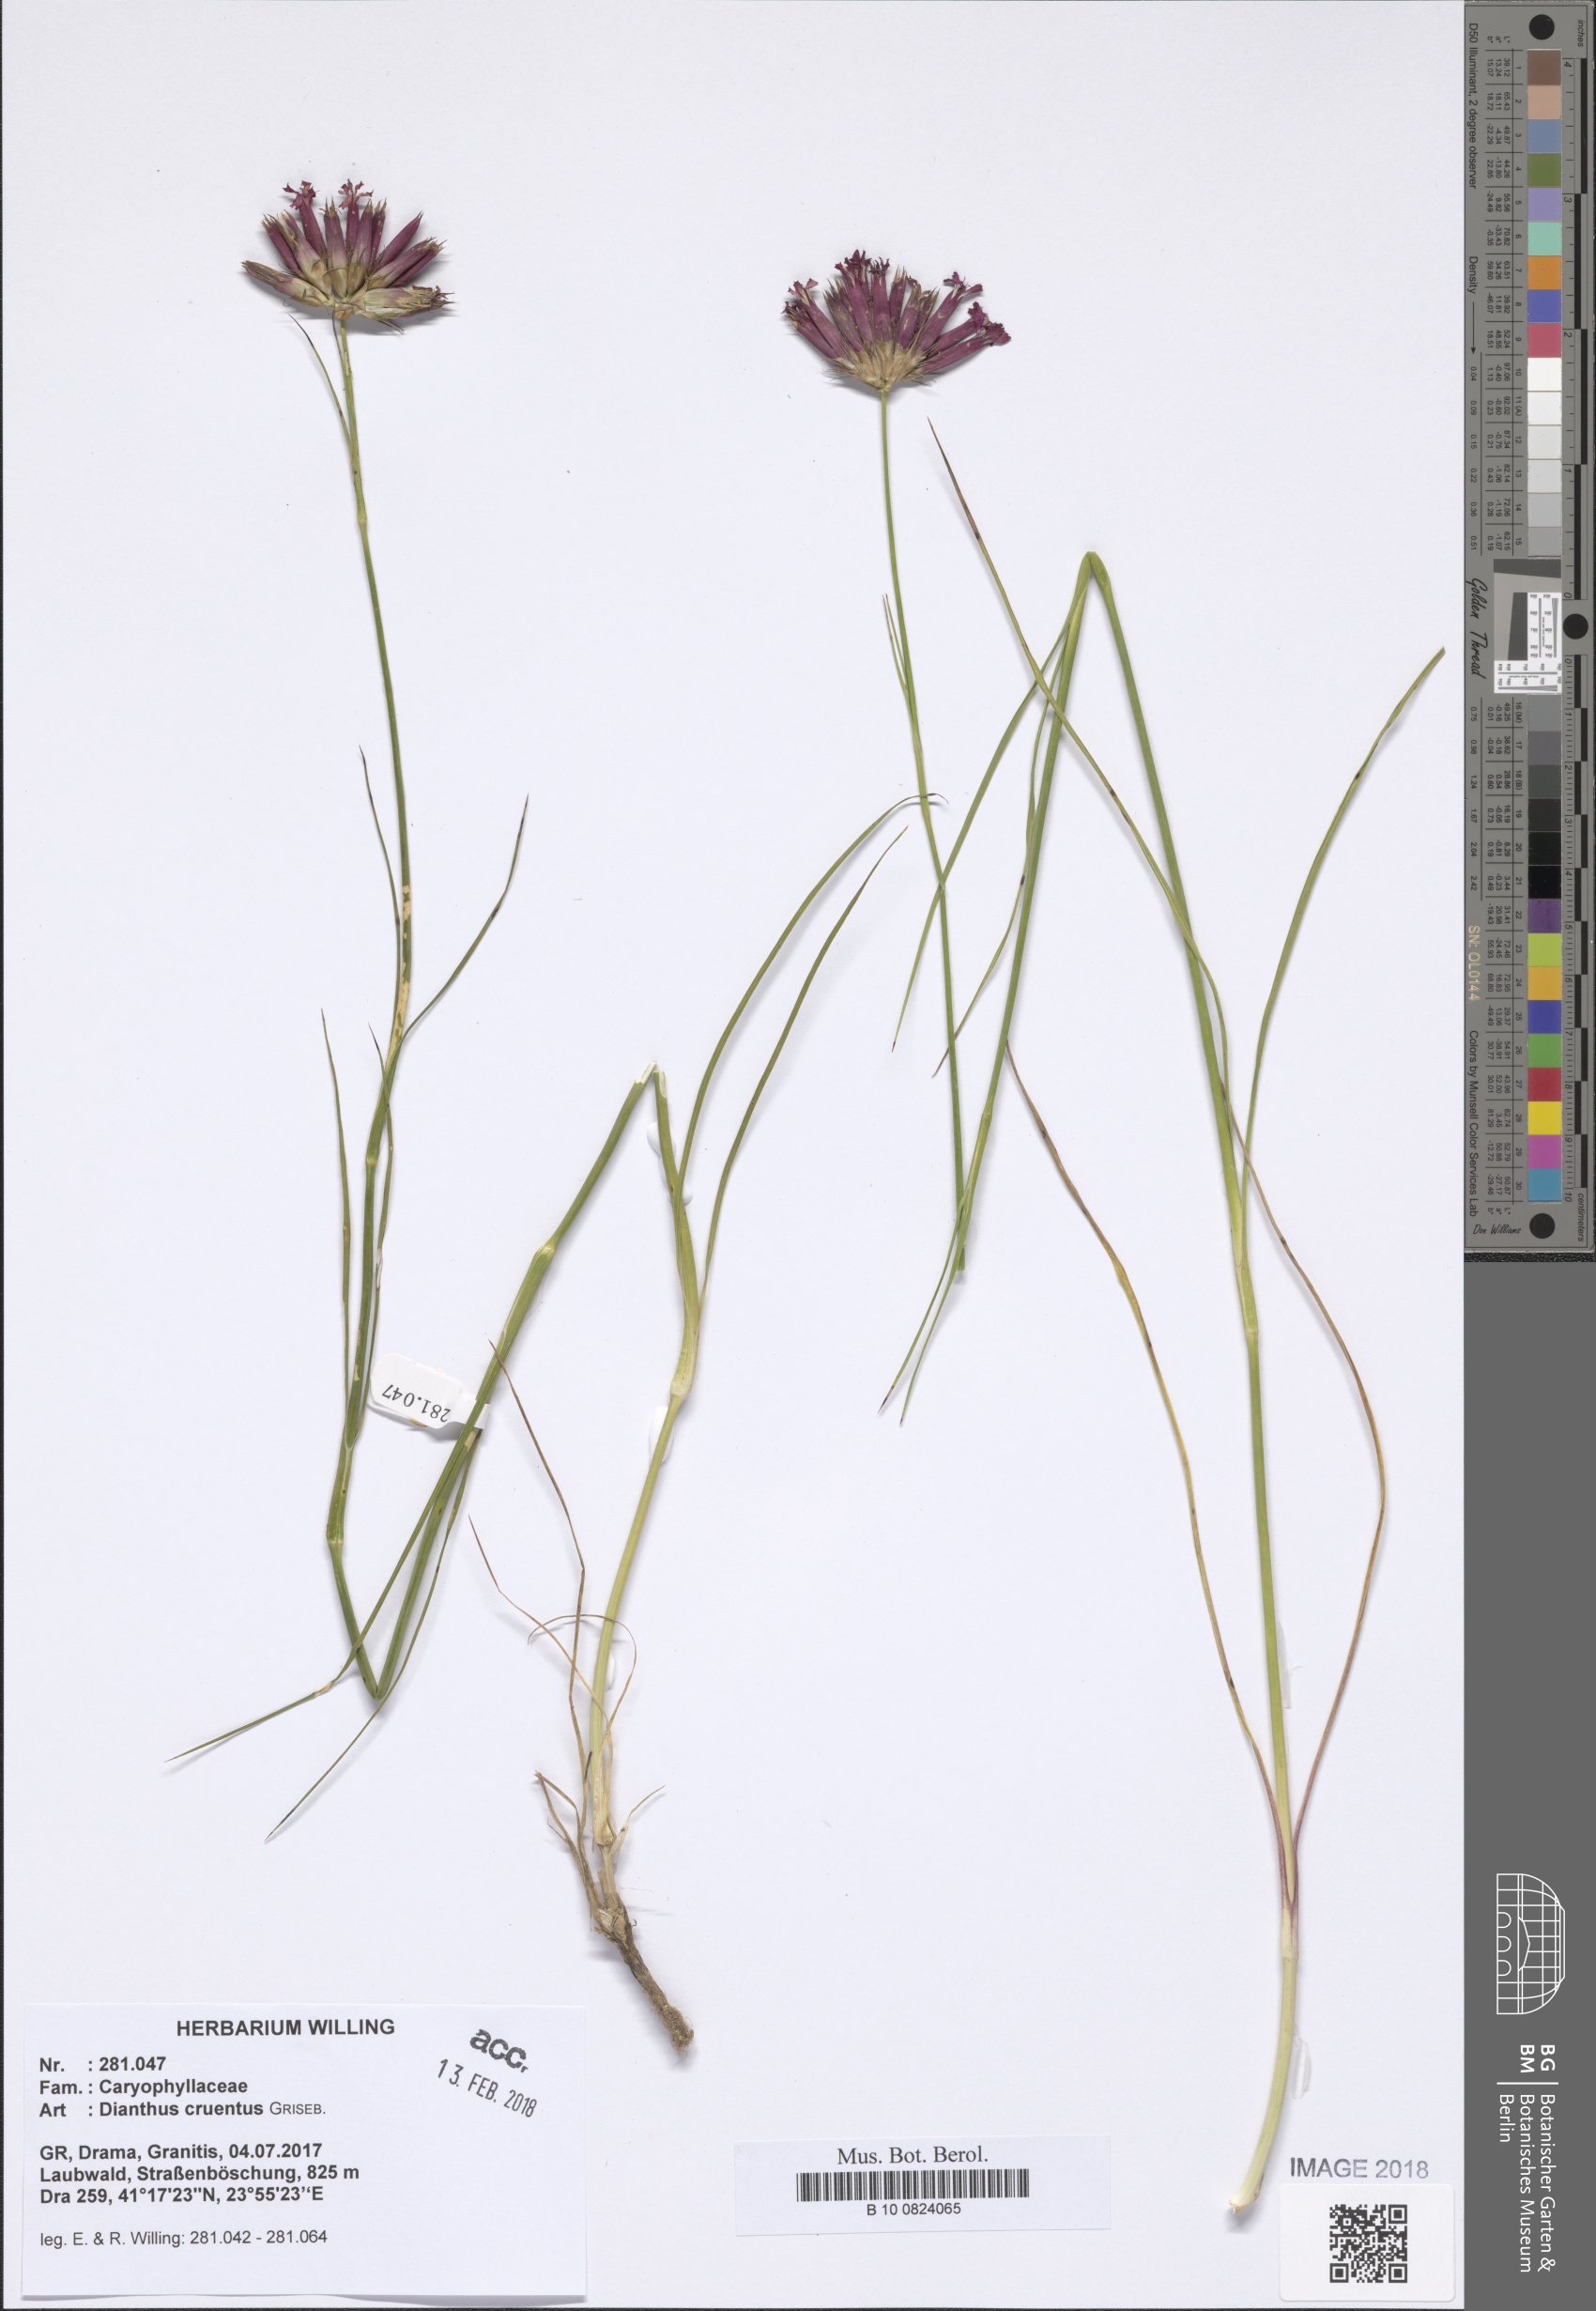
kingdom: Plantae
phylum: Tracheophyta
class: Magnoliopsida
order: Caryophyllales
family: Caryophyllaceae
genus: Dianthus
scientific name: Dianthus cruentus
